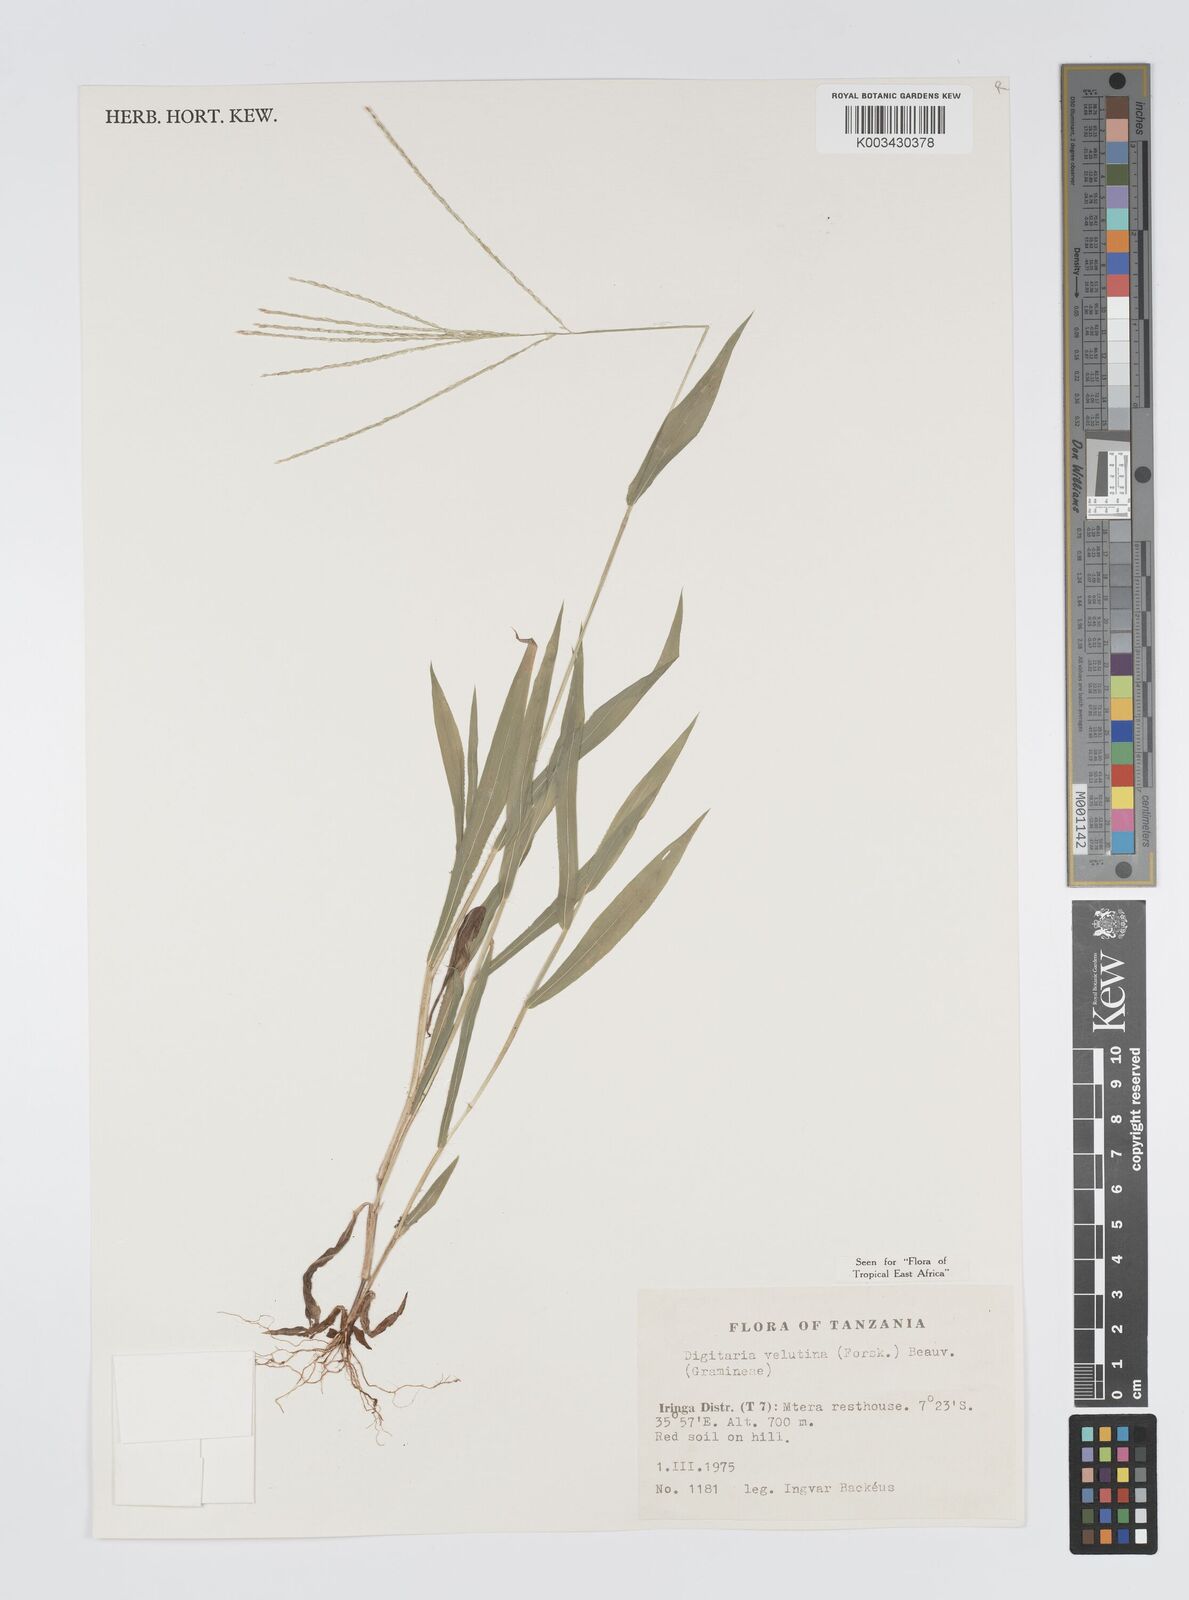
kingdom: Plantae
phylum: Tracheophyta
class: Liliopsida
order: Poales
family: Poaceae
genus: Digitaria
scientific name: Digitaria velutina
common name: Long-plume finger grass
